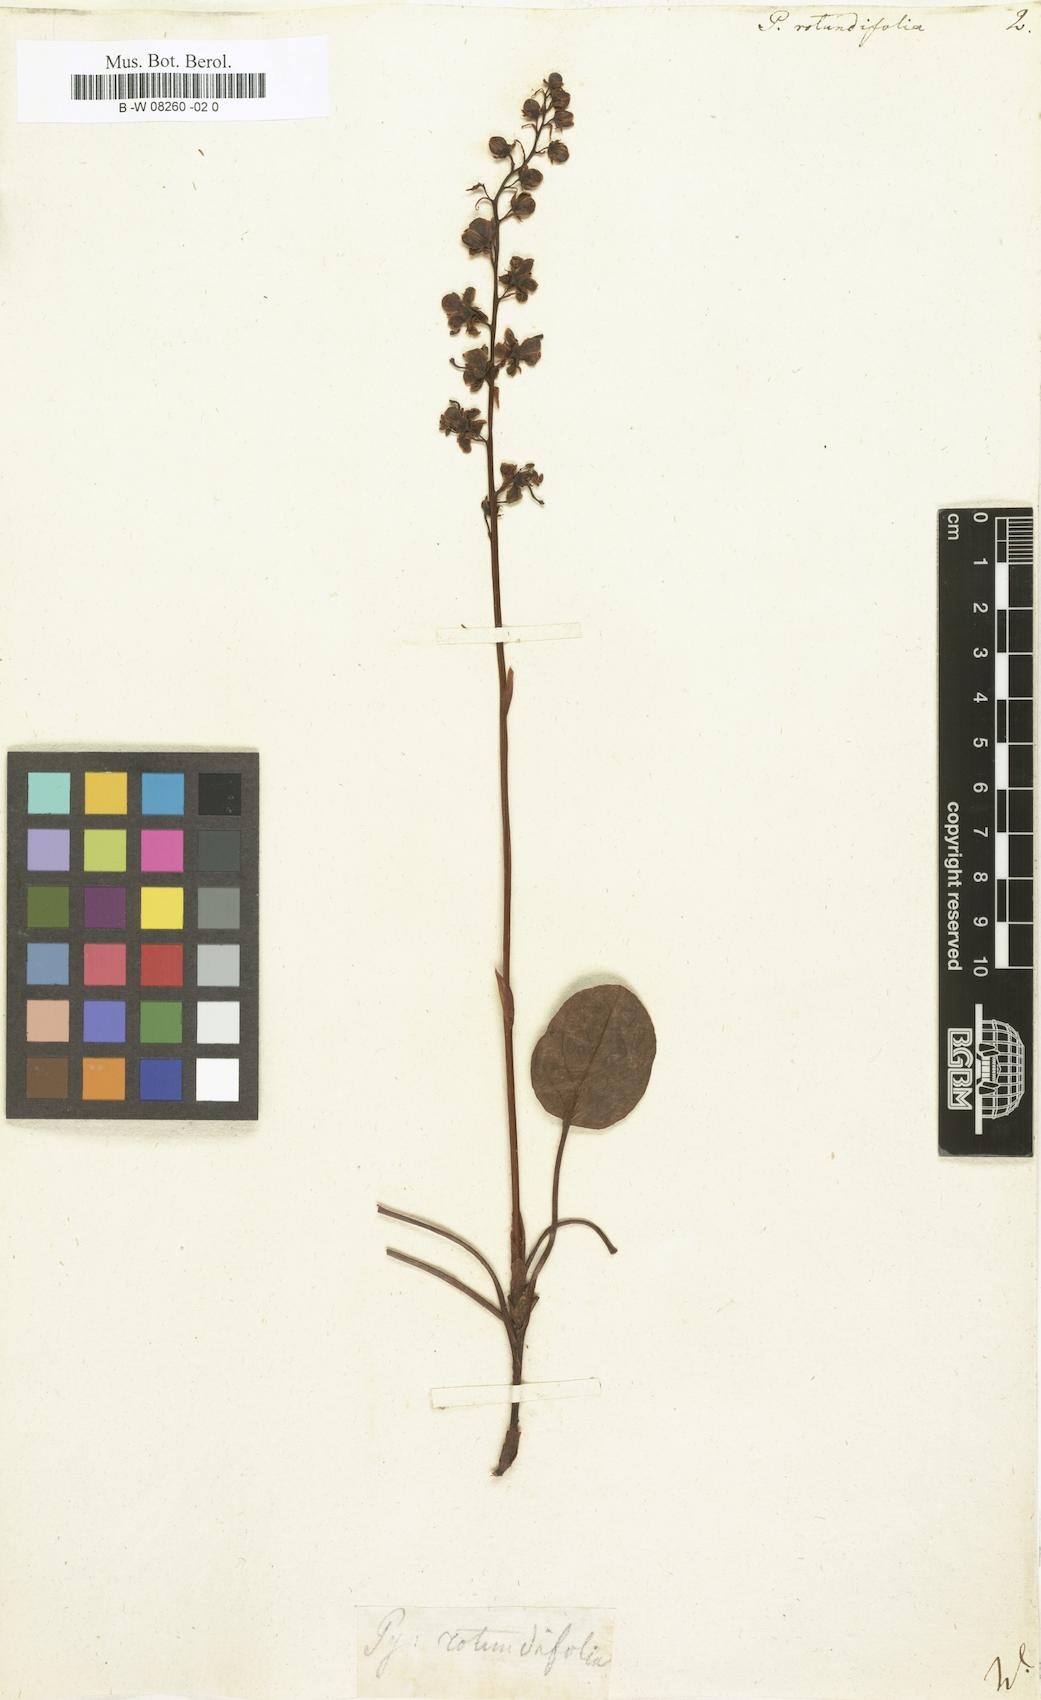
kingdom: Plantae
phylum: Tracheophyta
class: Magnoliopsida
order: Ericales
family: Ericaceae
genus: Pyrola
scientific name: Pyrola rotundifolia
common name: Round-leaved wintergreen
